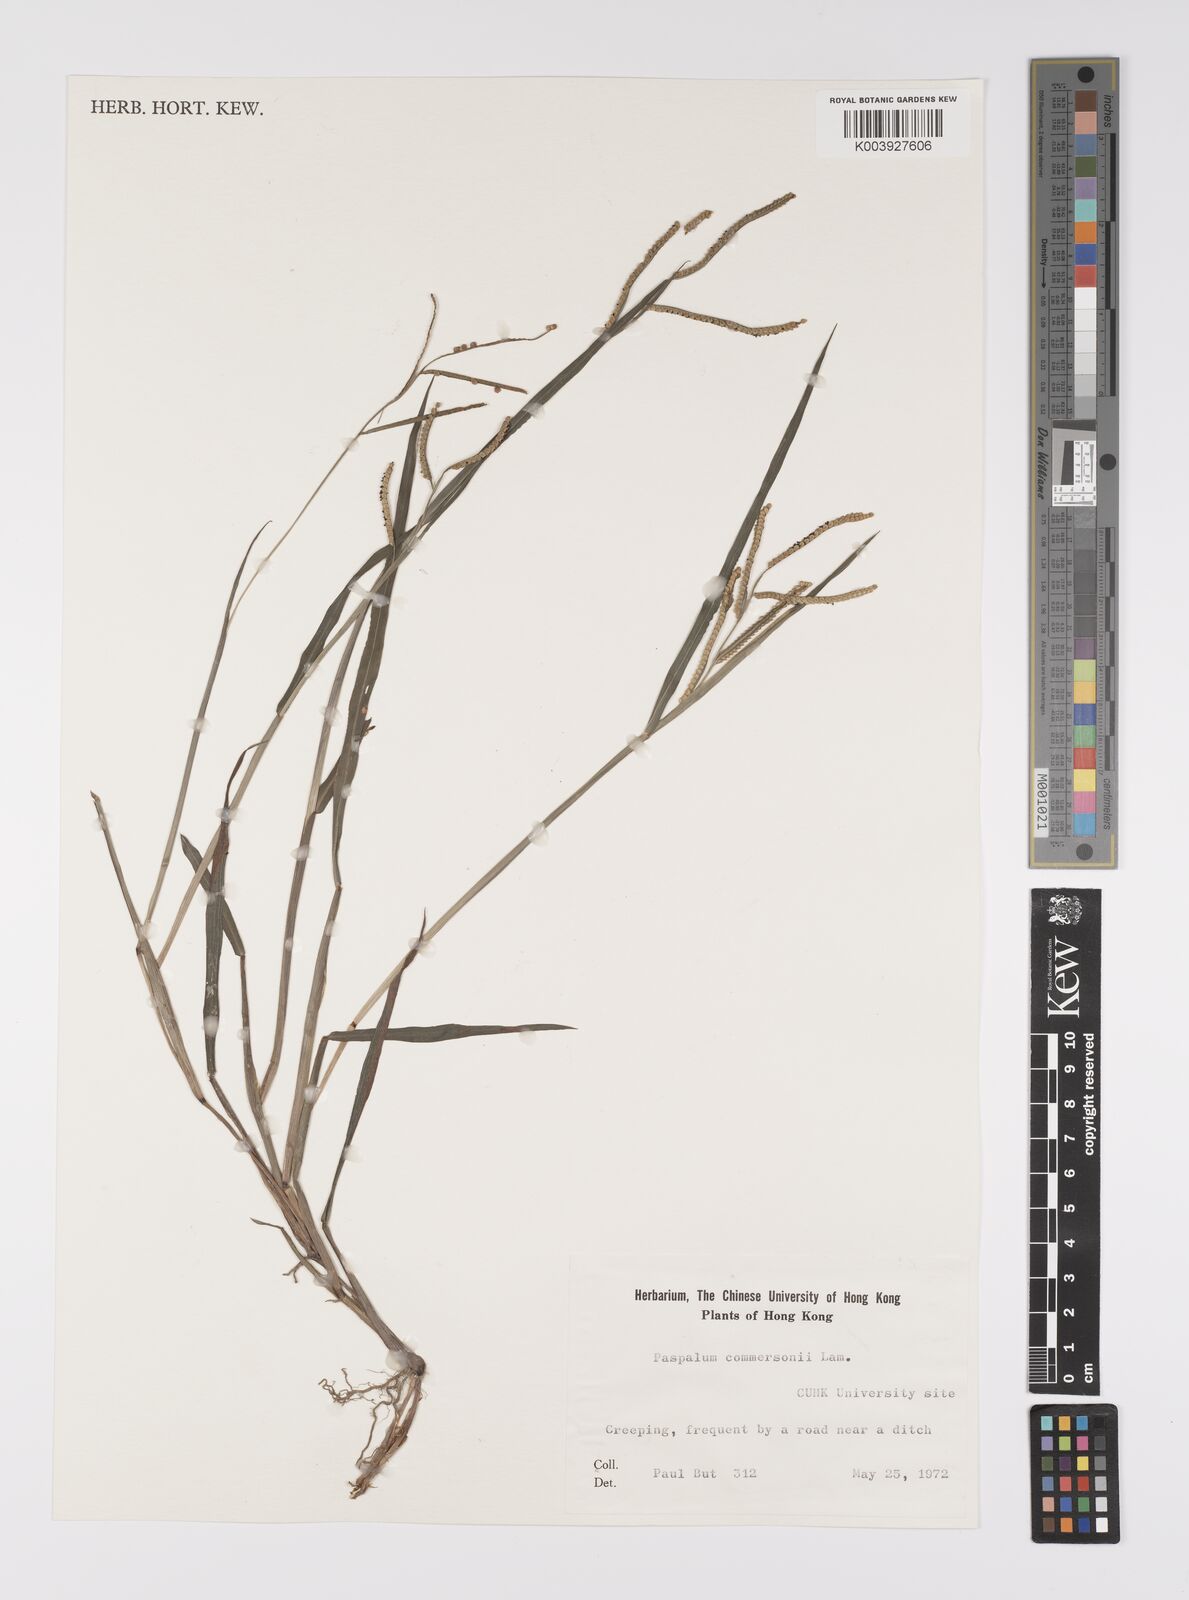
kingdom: Plantae
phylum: Tracheophyta
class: Liliopsida
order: Poales
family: Poaceae
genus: Paspalum
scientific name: Paspalum scrobiculatum
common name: Kodo millet
